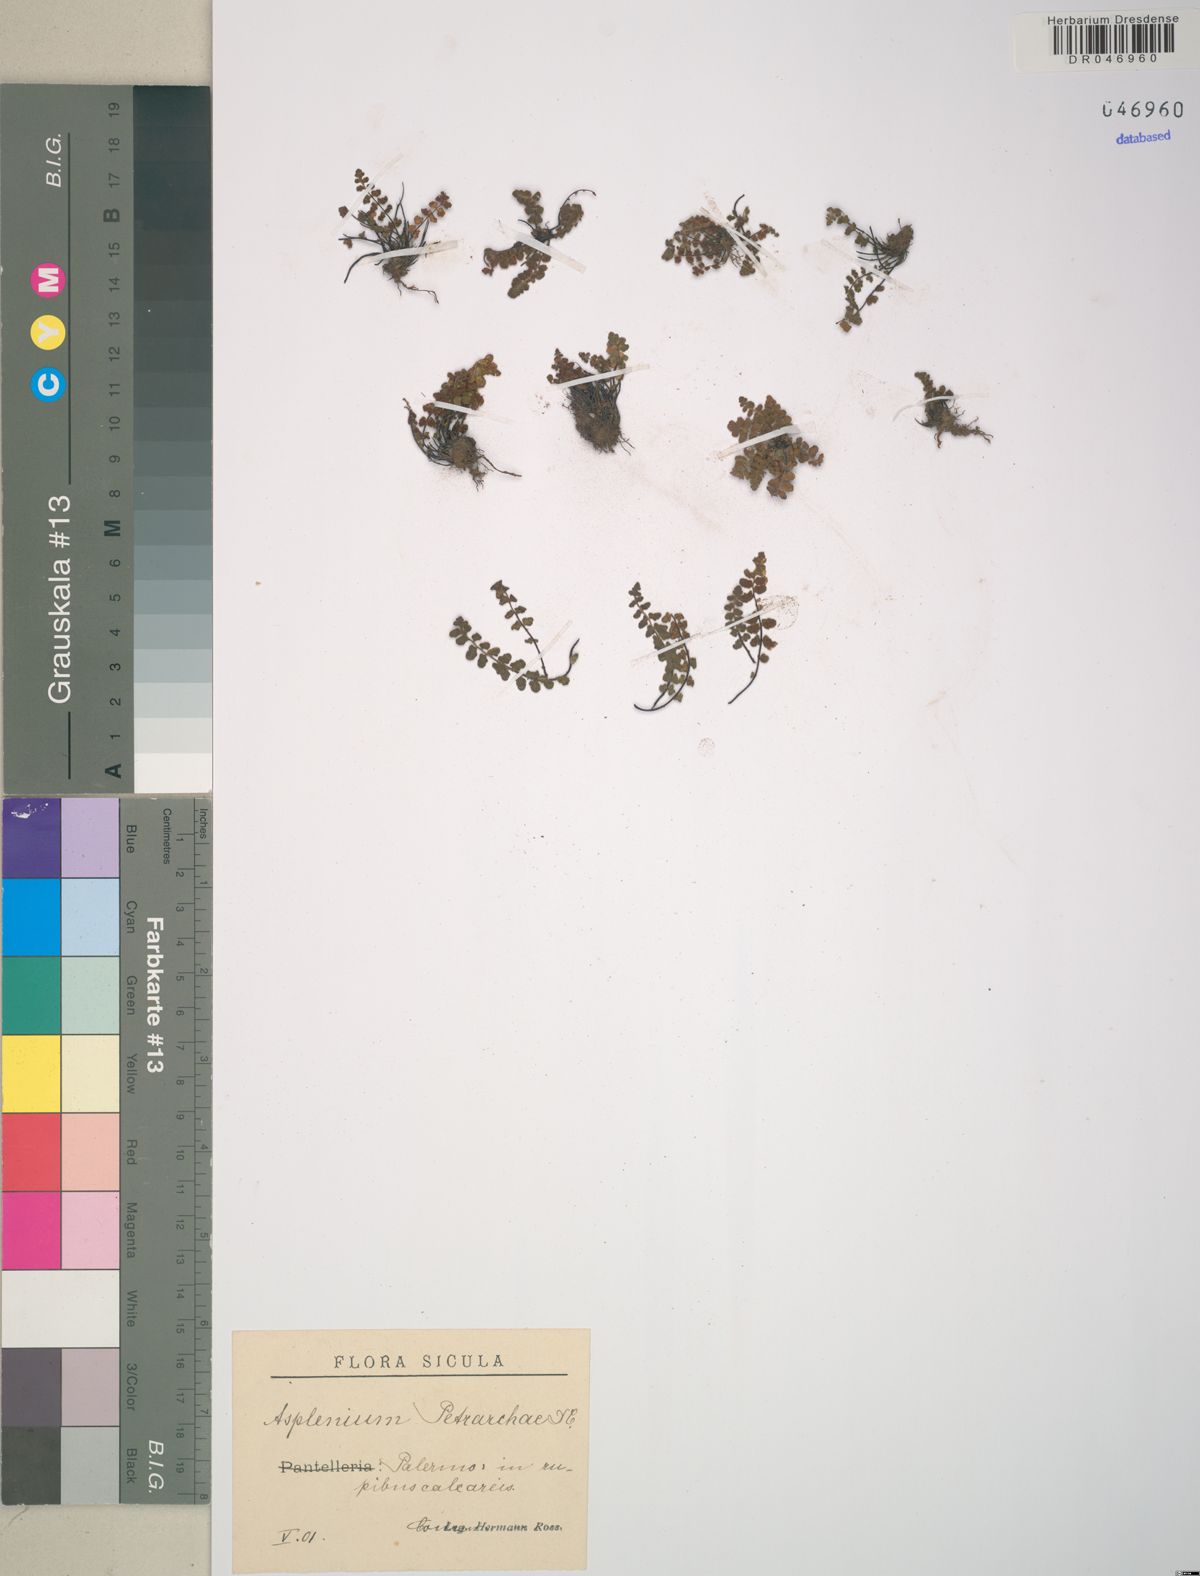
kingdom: Plantae
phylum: Tracheophyta
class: Polypodiopsida
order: Polypodiales
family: Aspleniaceae
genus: Asplenium
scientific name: Asplenium petrarchae
